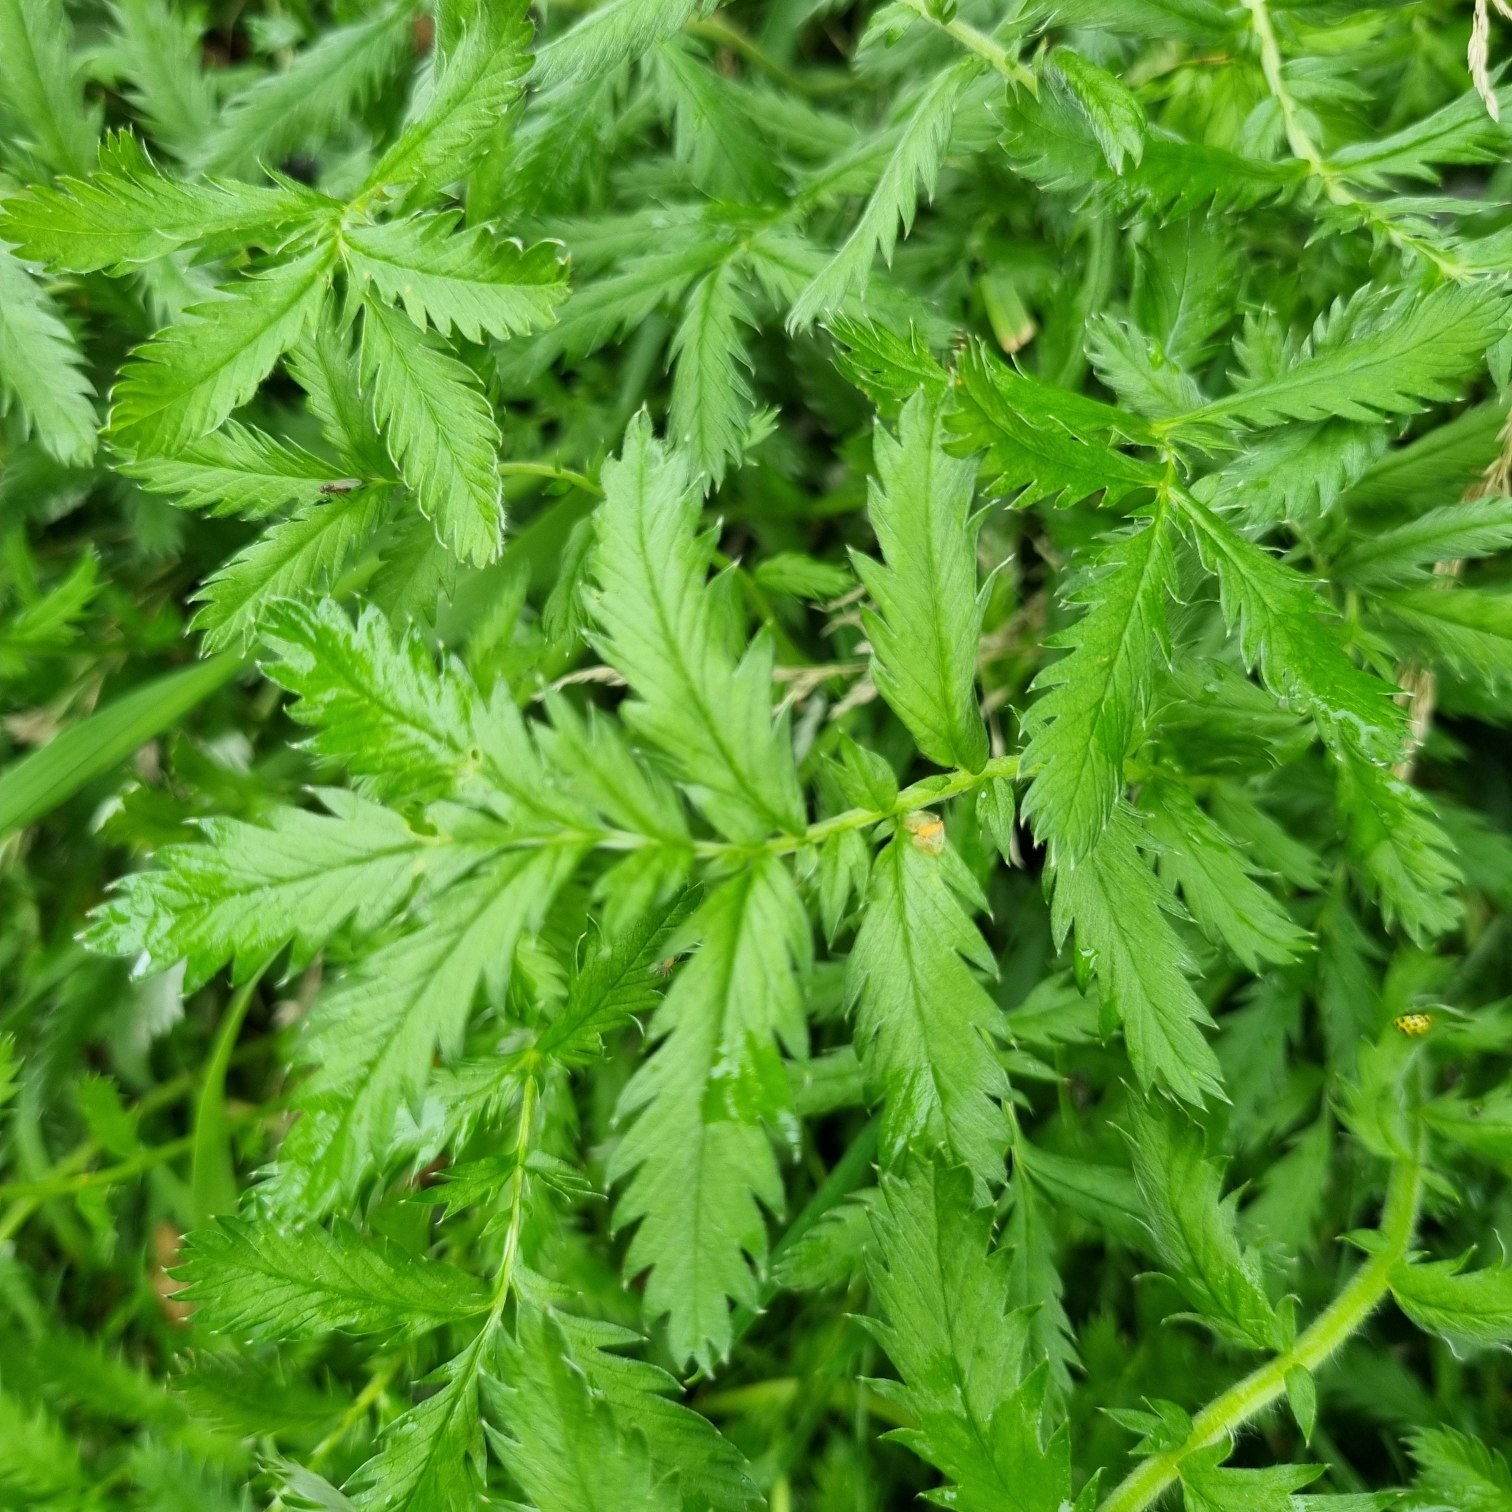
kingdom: Plantae
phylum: Tracheophyta
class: Magnoliopsida
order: Rosales
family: Rosaceae
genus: Argentina
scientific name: Argentina anserina
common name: Gåsepotentil
